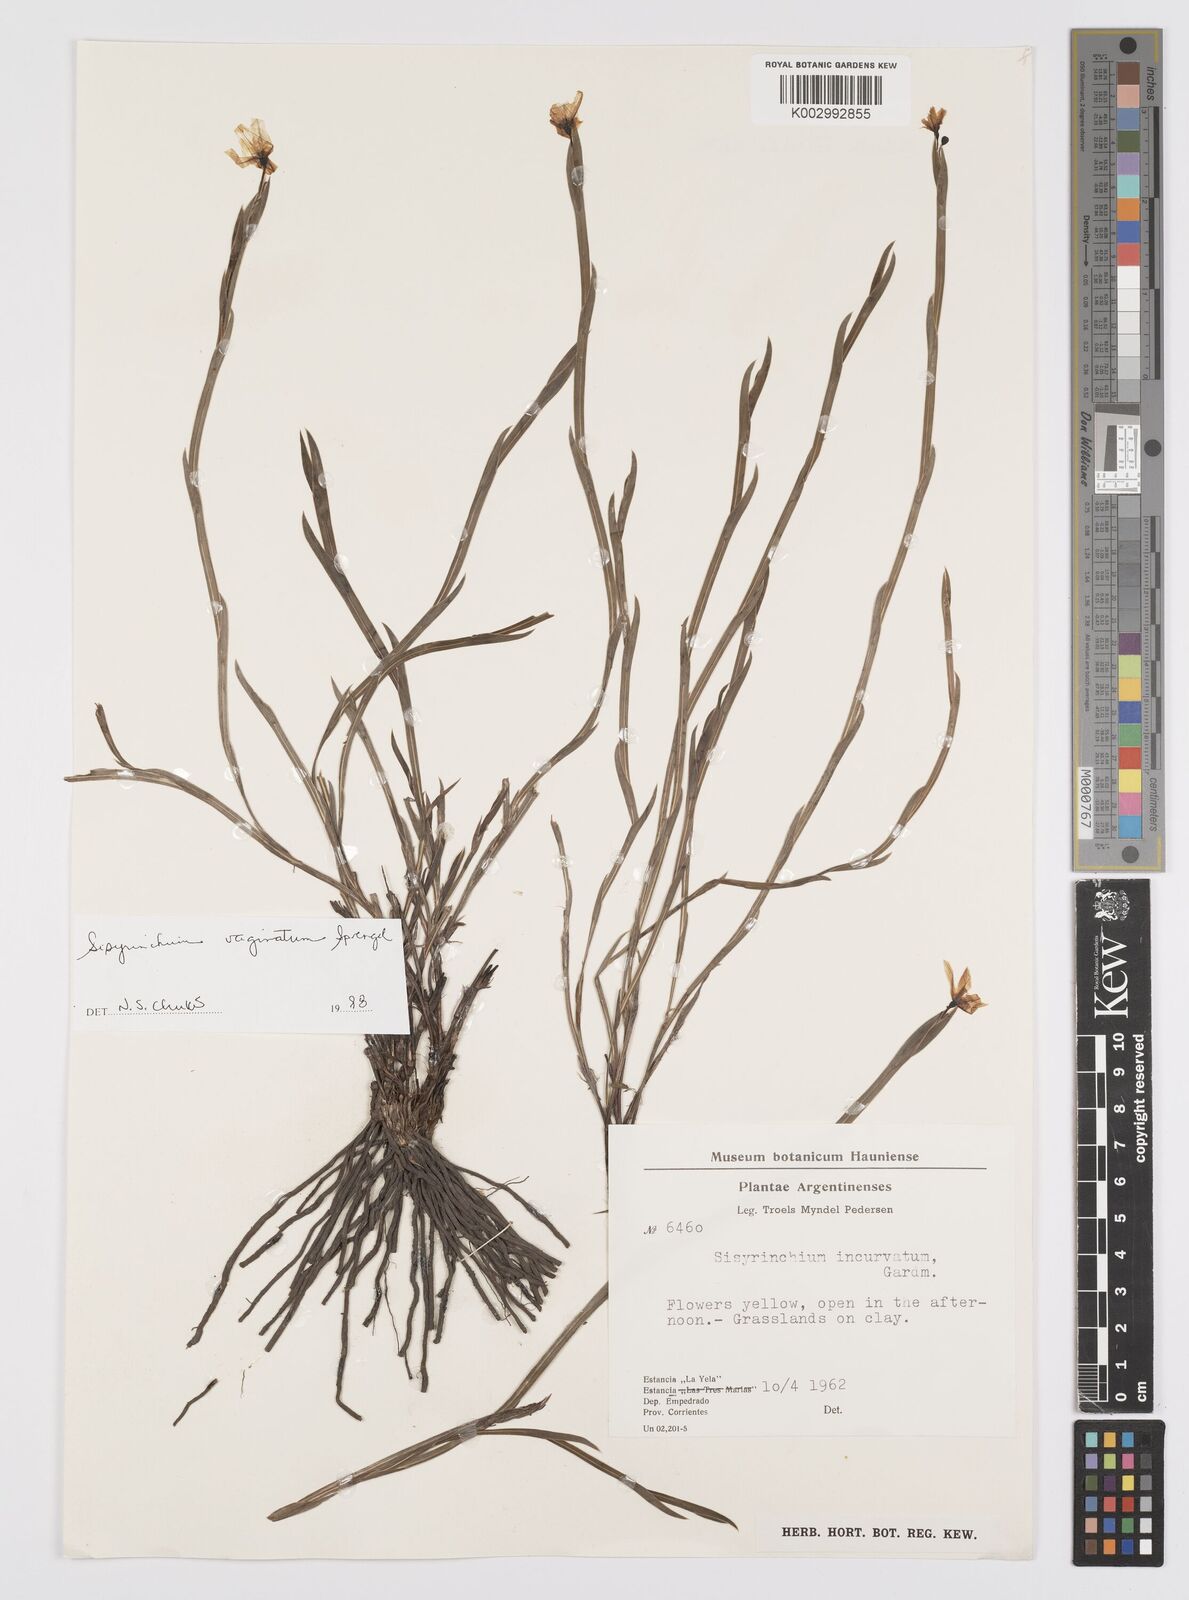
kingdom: Plantae
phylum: Tracheophyta
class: Liliopsida
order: Asparagales
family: Iridaceae
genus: Sisyrinchium
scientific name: Sisyrinchium vaginatum
